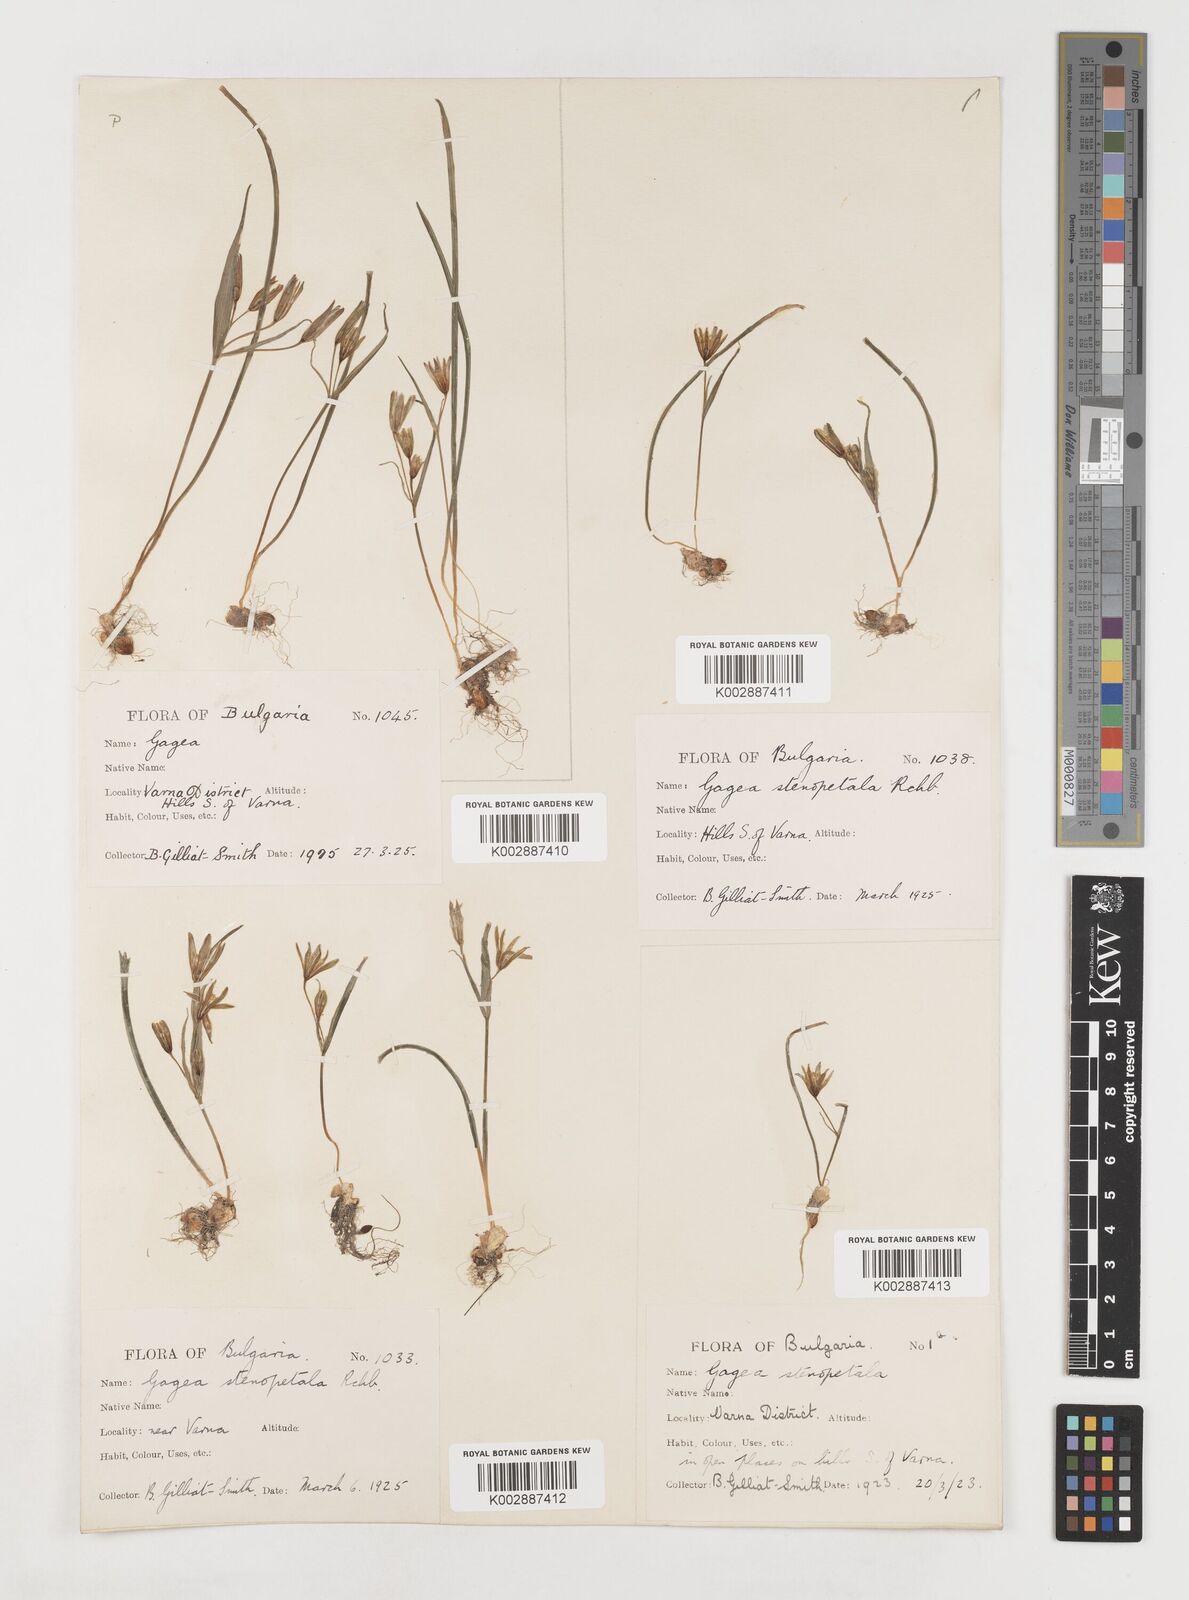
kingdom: Plantae
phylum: Tracheophyta
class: Liliopsida
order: Liliales
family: Liliaceae
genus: Gagea
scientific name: Gagea pratensis
